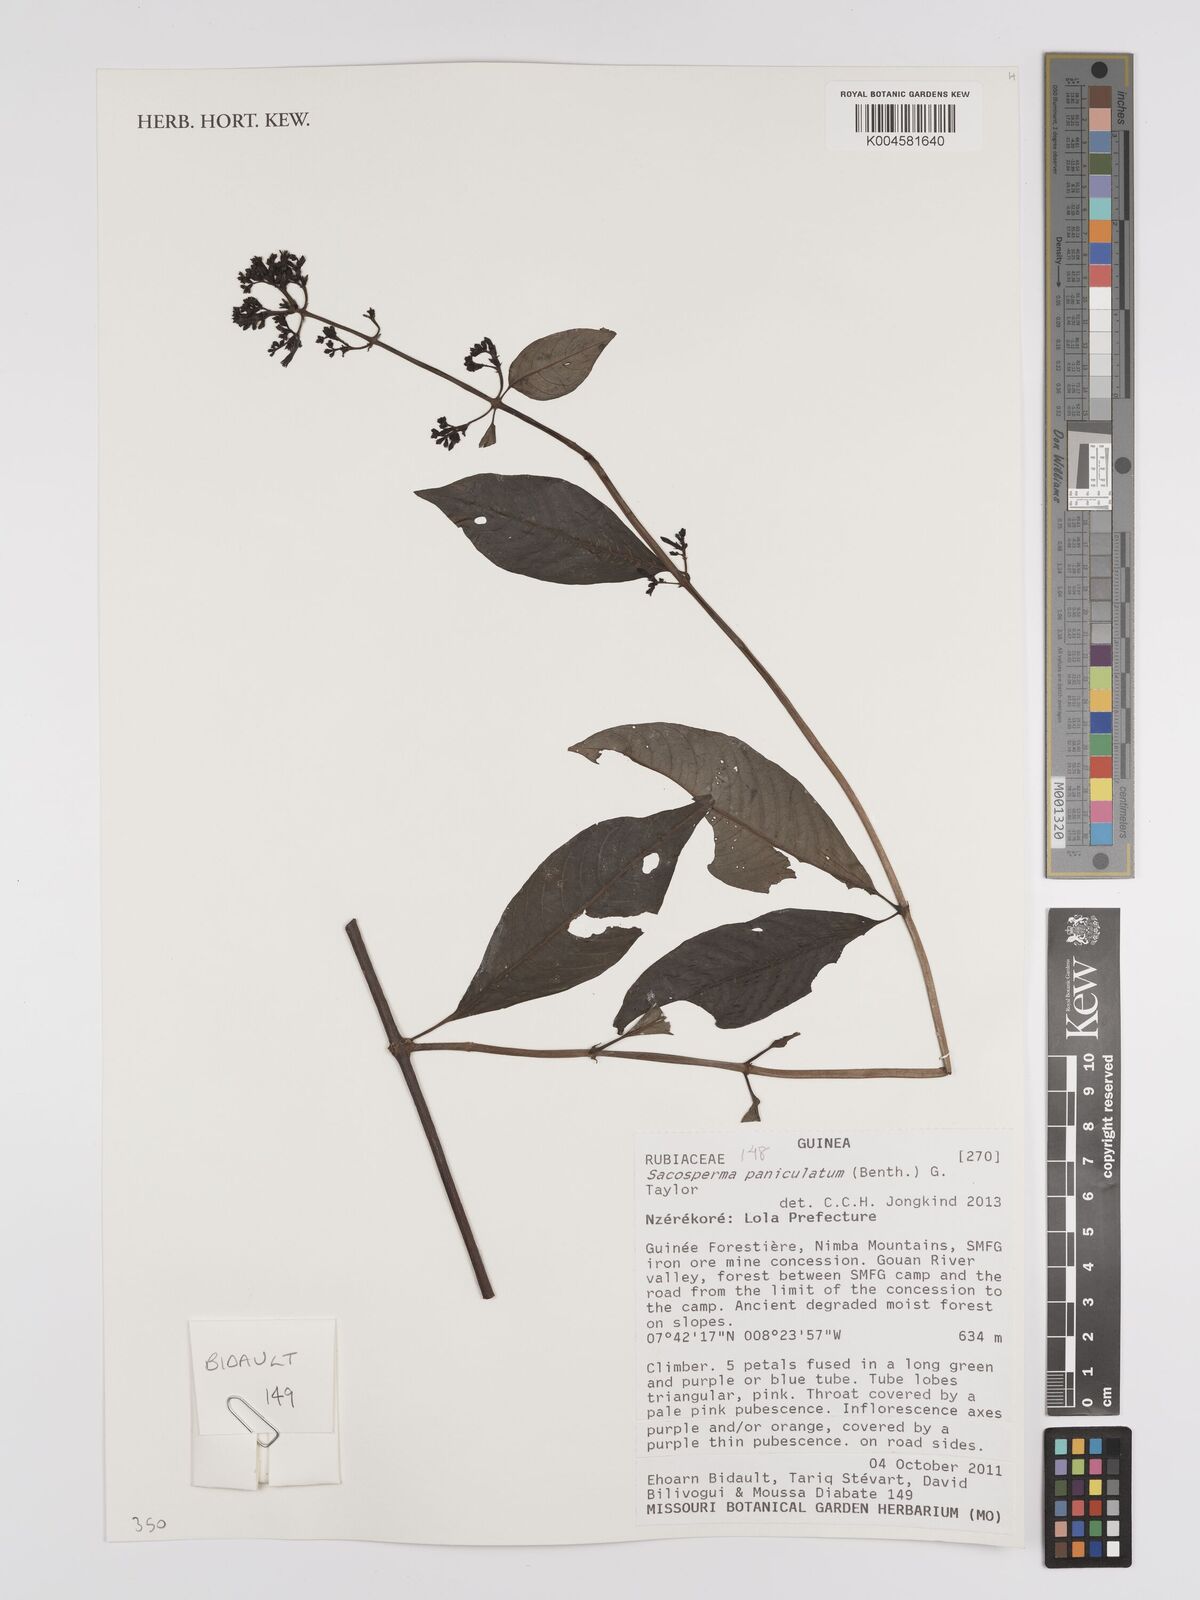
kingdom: Plantae
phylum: Tracheophyta
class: Magnoliopsida
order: Gentianales
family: Rubiaceae
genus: Sacosperma
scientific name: Sacosperma paniculatum
